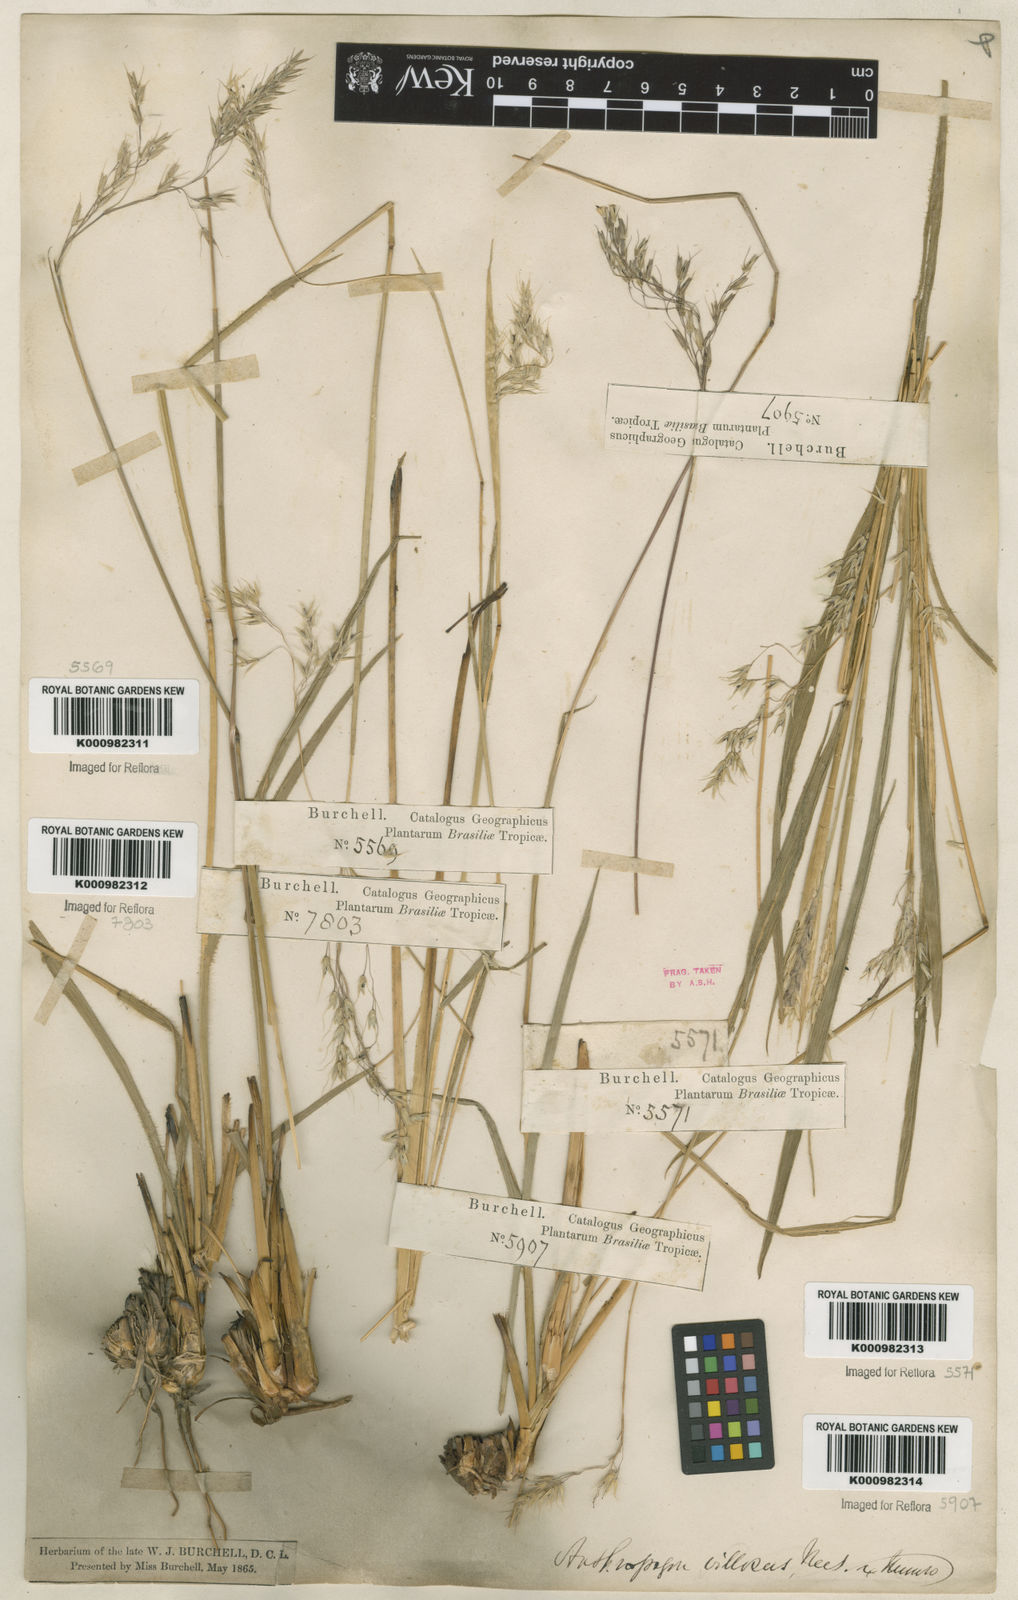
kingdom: Plantae
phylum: Tracheophyta
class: Liliopsida
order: Poales
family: Poaceae
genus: Arthropogon
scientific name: Arthropogon villosus
